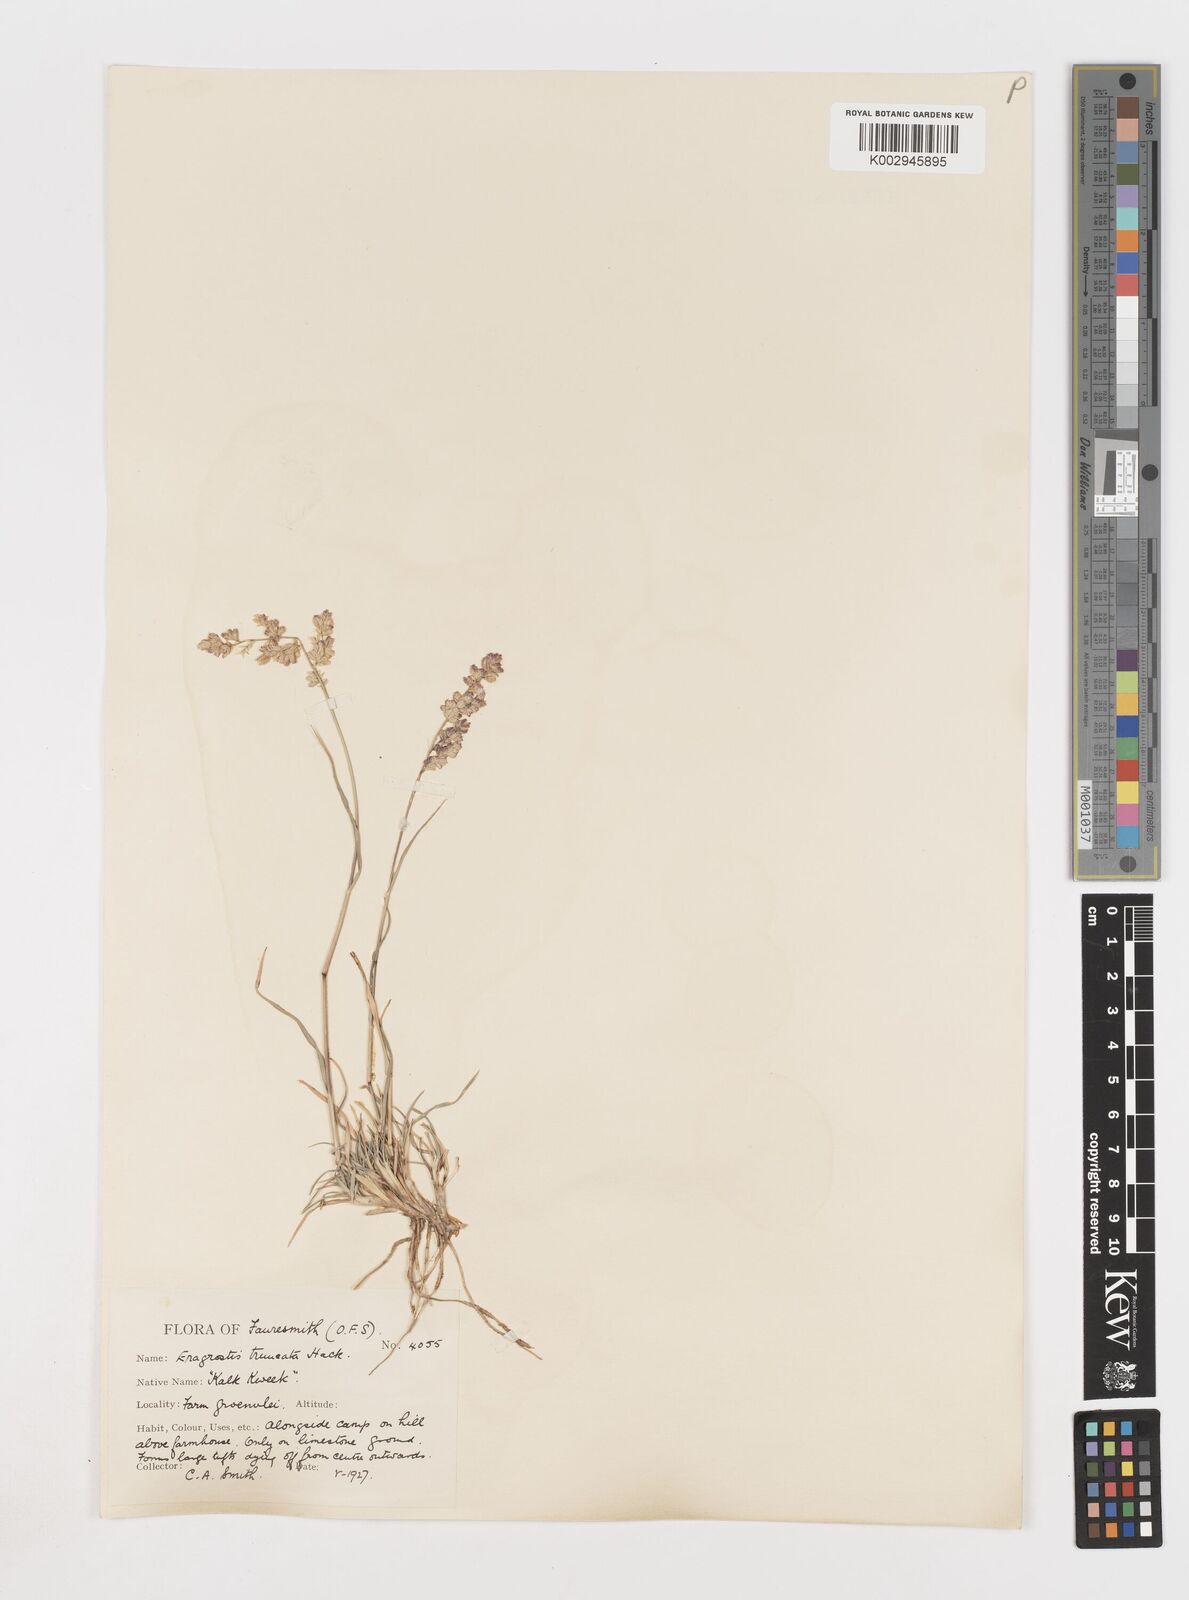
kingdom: Plantae
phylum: Tracheophyta
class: Liliopsida
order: Poales
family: Poaceae
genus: Eragrostis
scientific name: Eragrostis truncata
